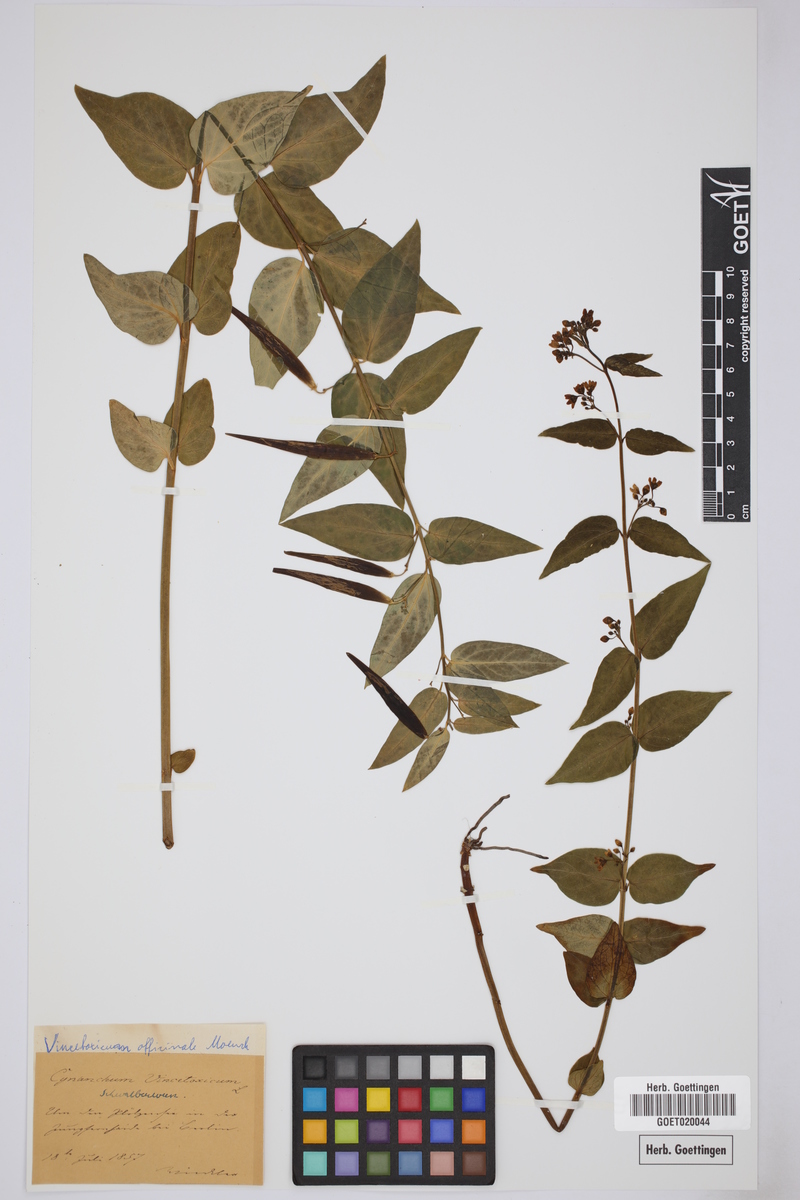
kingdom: Plantae
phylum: Tracheophyta
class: Magnoliopsida
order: Gentianales
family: Apocynaceae
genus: Vincetoxicum
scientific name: Vincetoxicum hirundinaria
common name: White swallowwort
